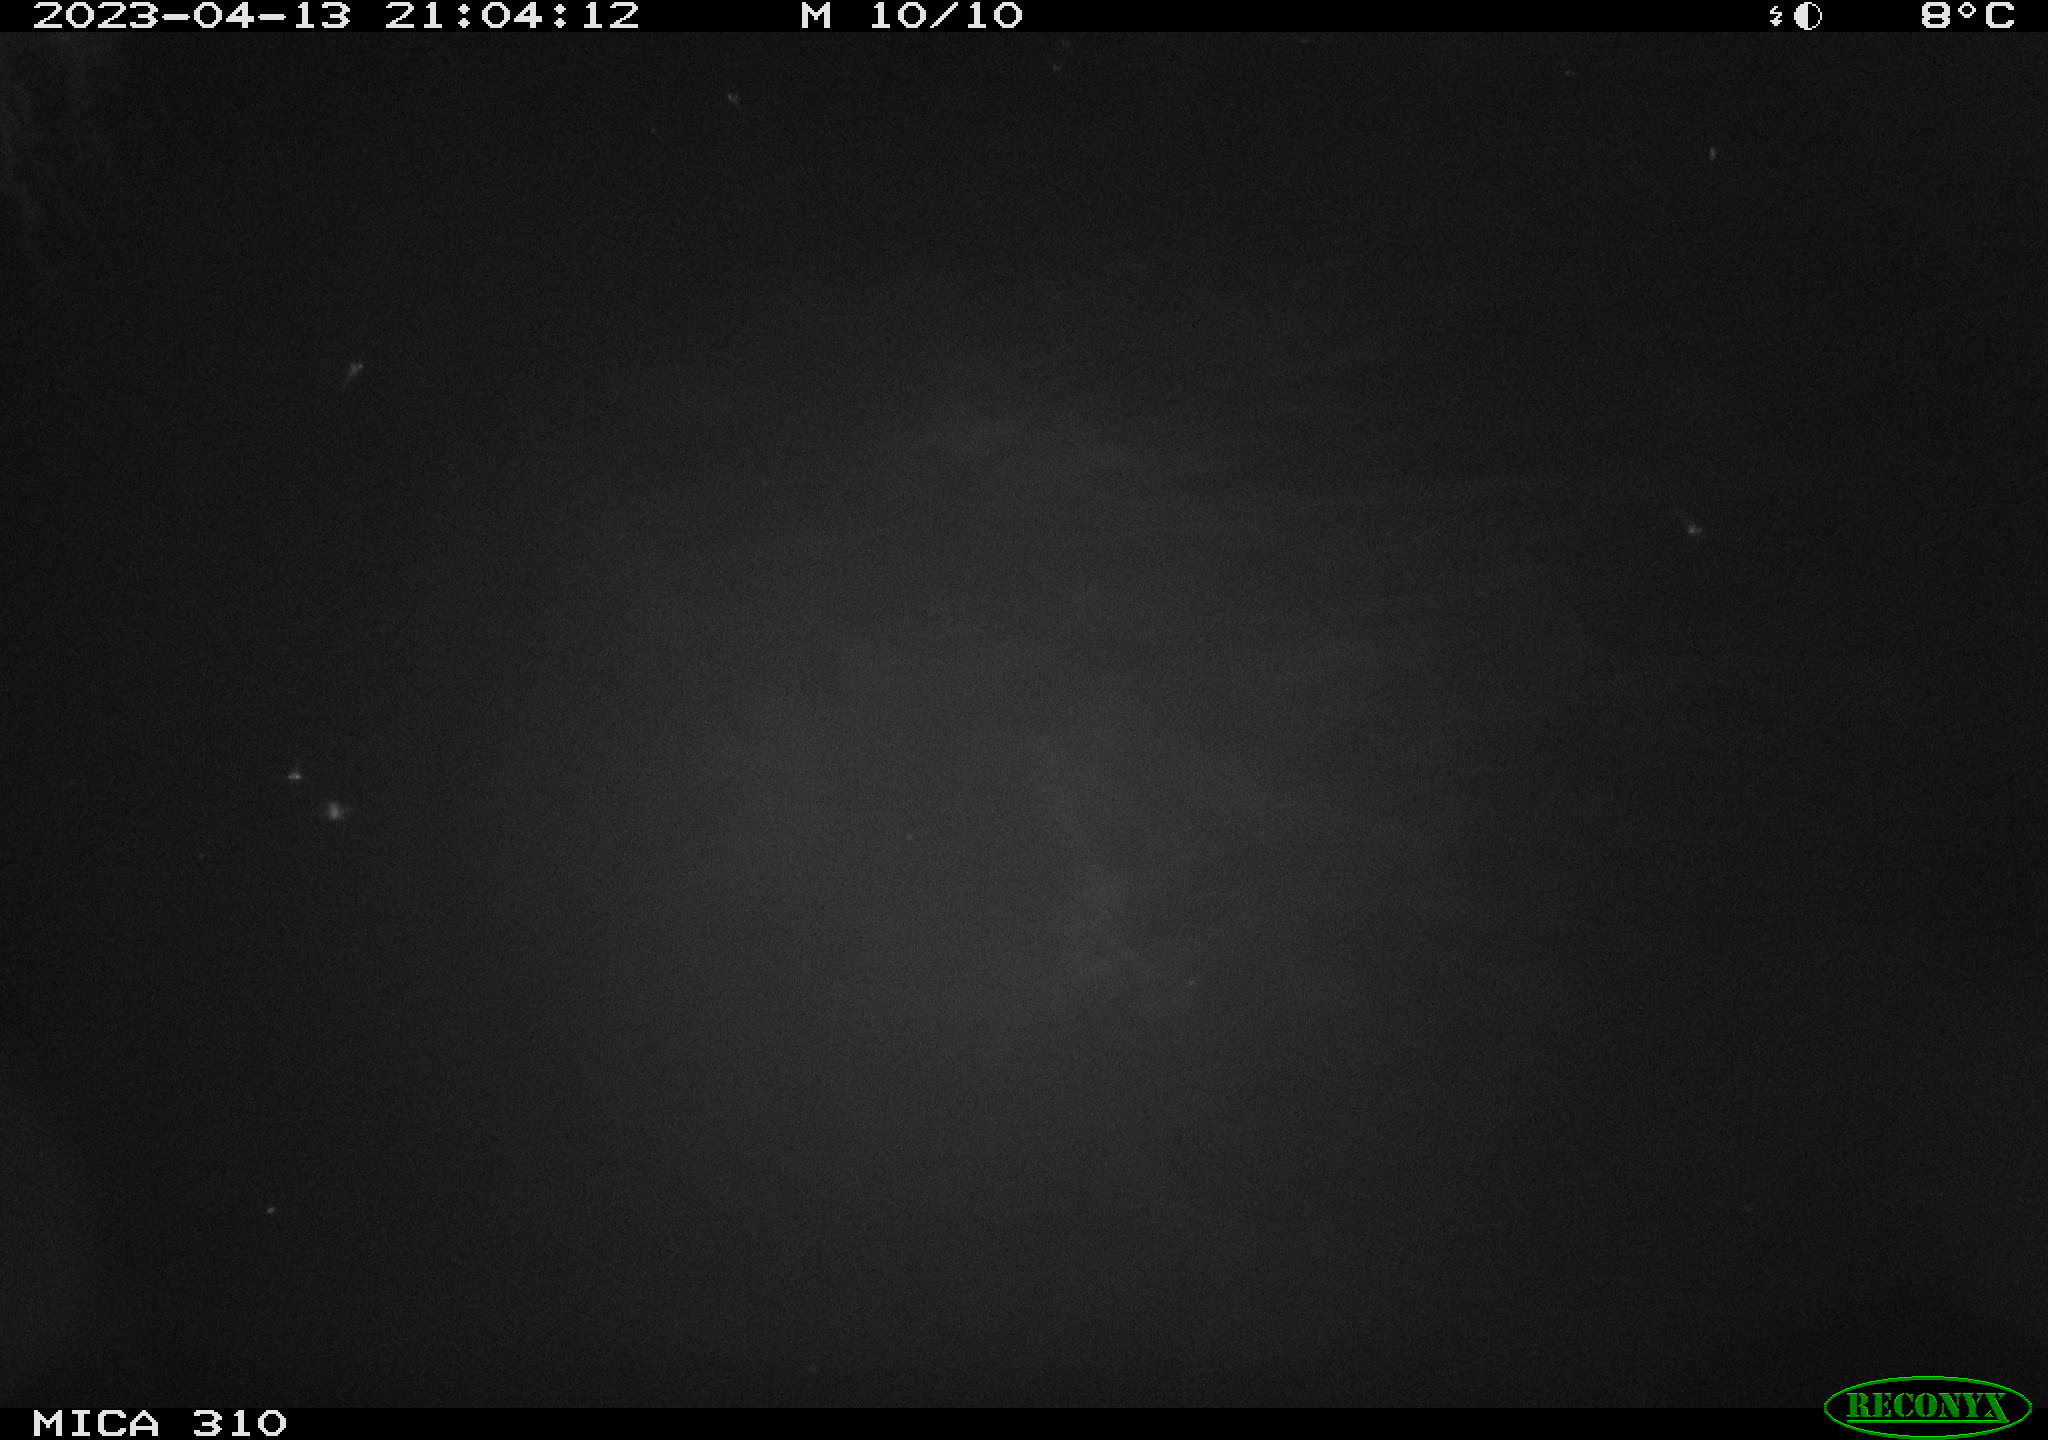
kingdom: Animalia
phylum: Chordata
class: Aves
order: Anseriformes
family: Anatidae
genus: Anas
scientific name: Anas
